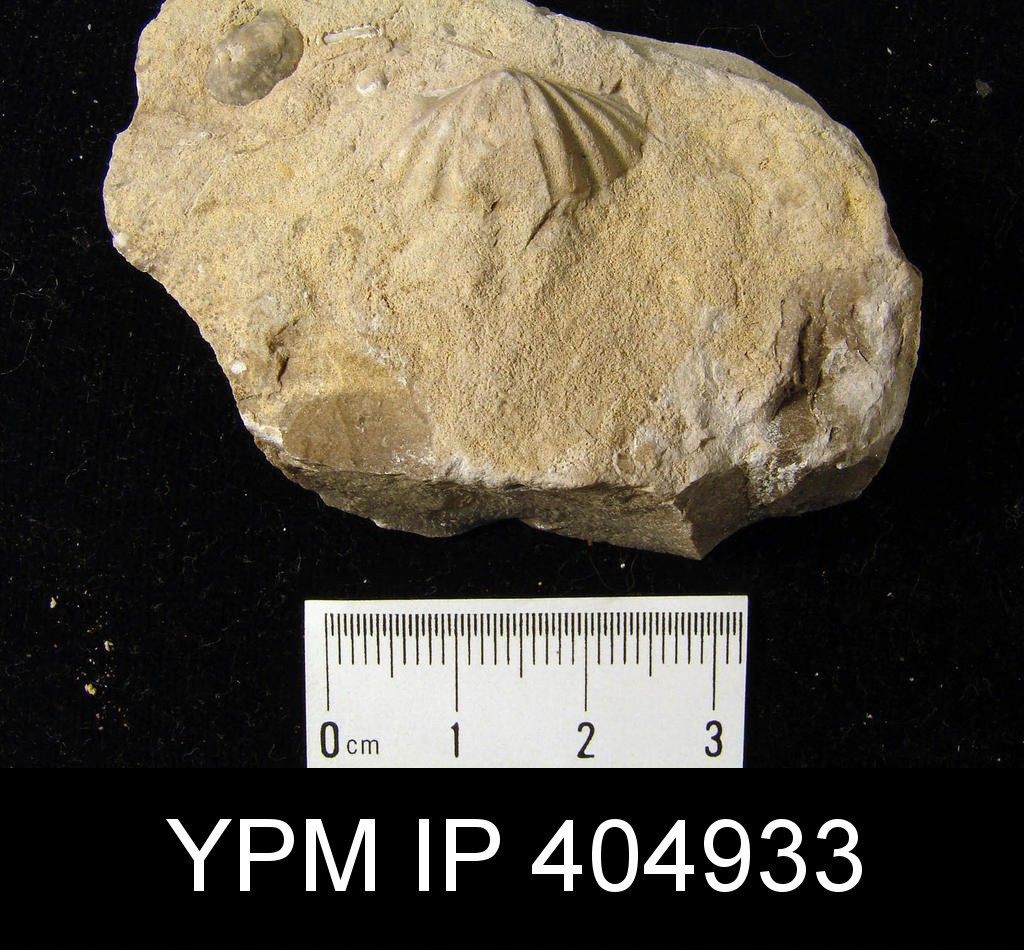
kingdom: Animalia
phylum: Brachiopoda
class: Rhynchonellata
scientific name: Rhynchonellata
